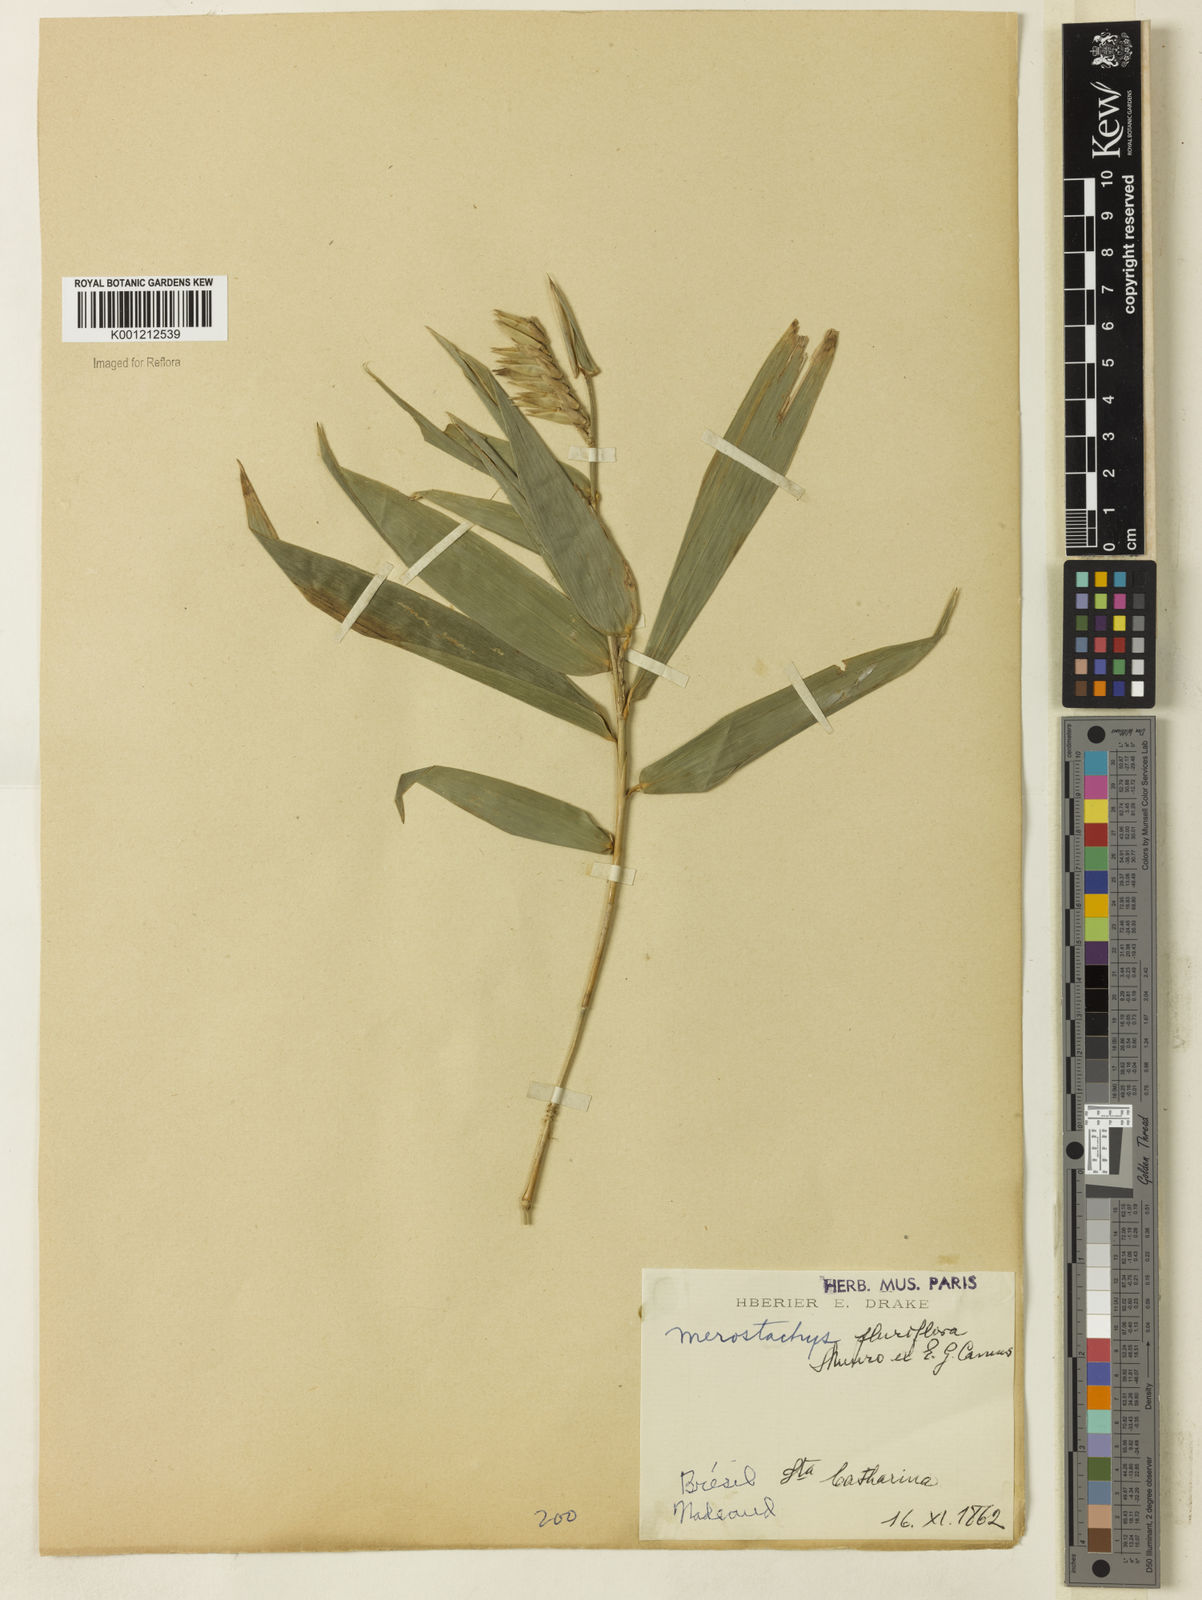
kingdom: Plantae
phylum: Tracheophyta
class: Liliopsida
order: Poales
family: Poaceae
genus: Merostachys
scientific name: Merostachys pluriflora
